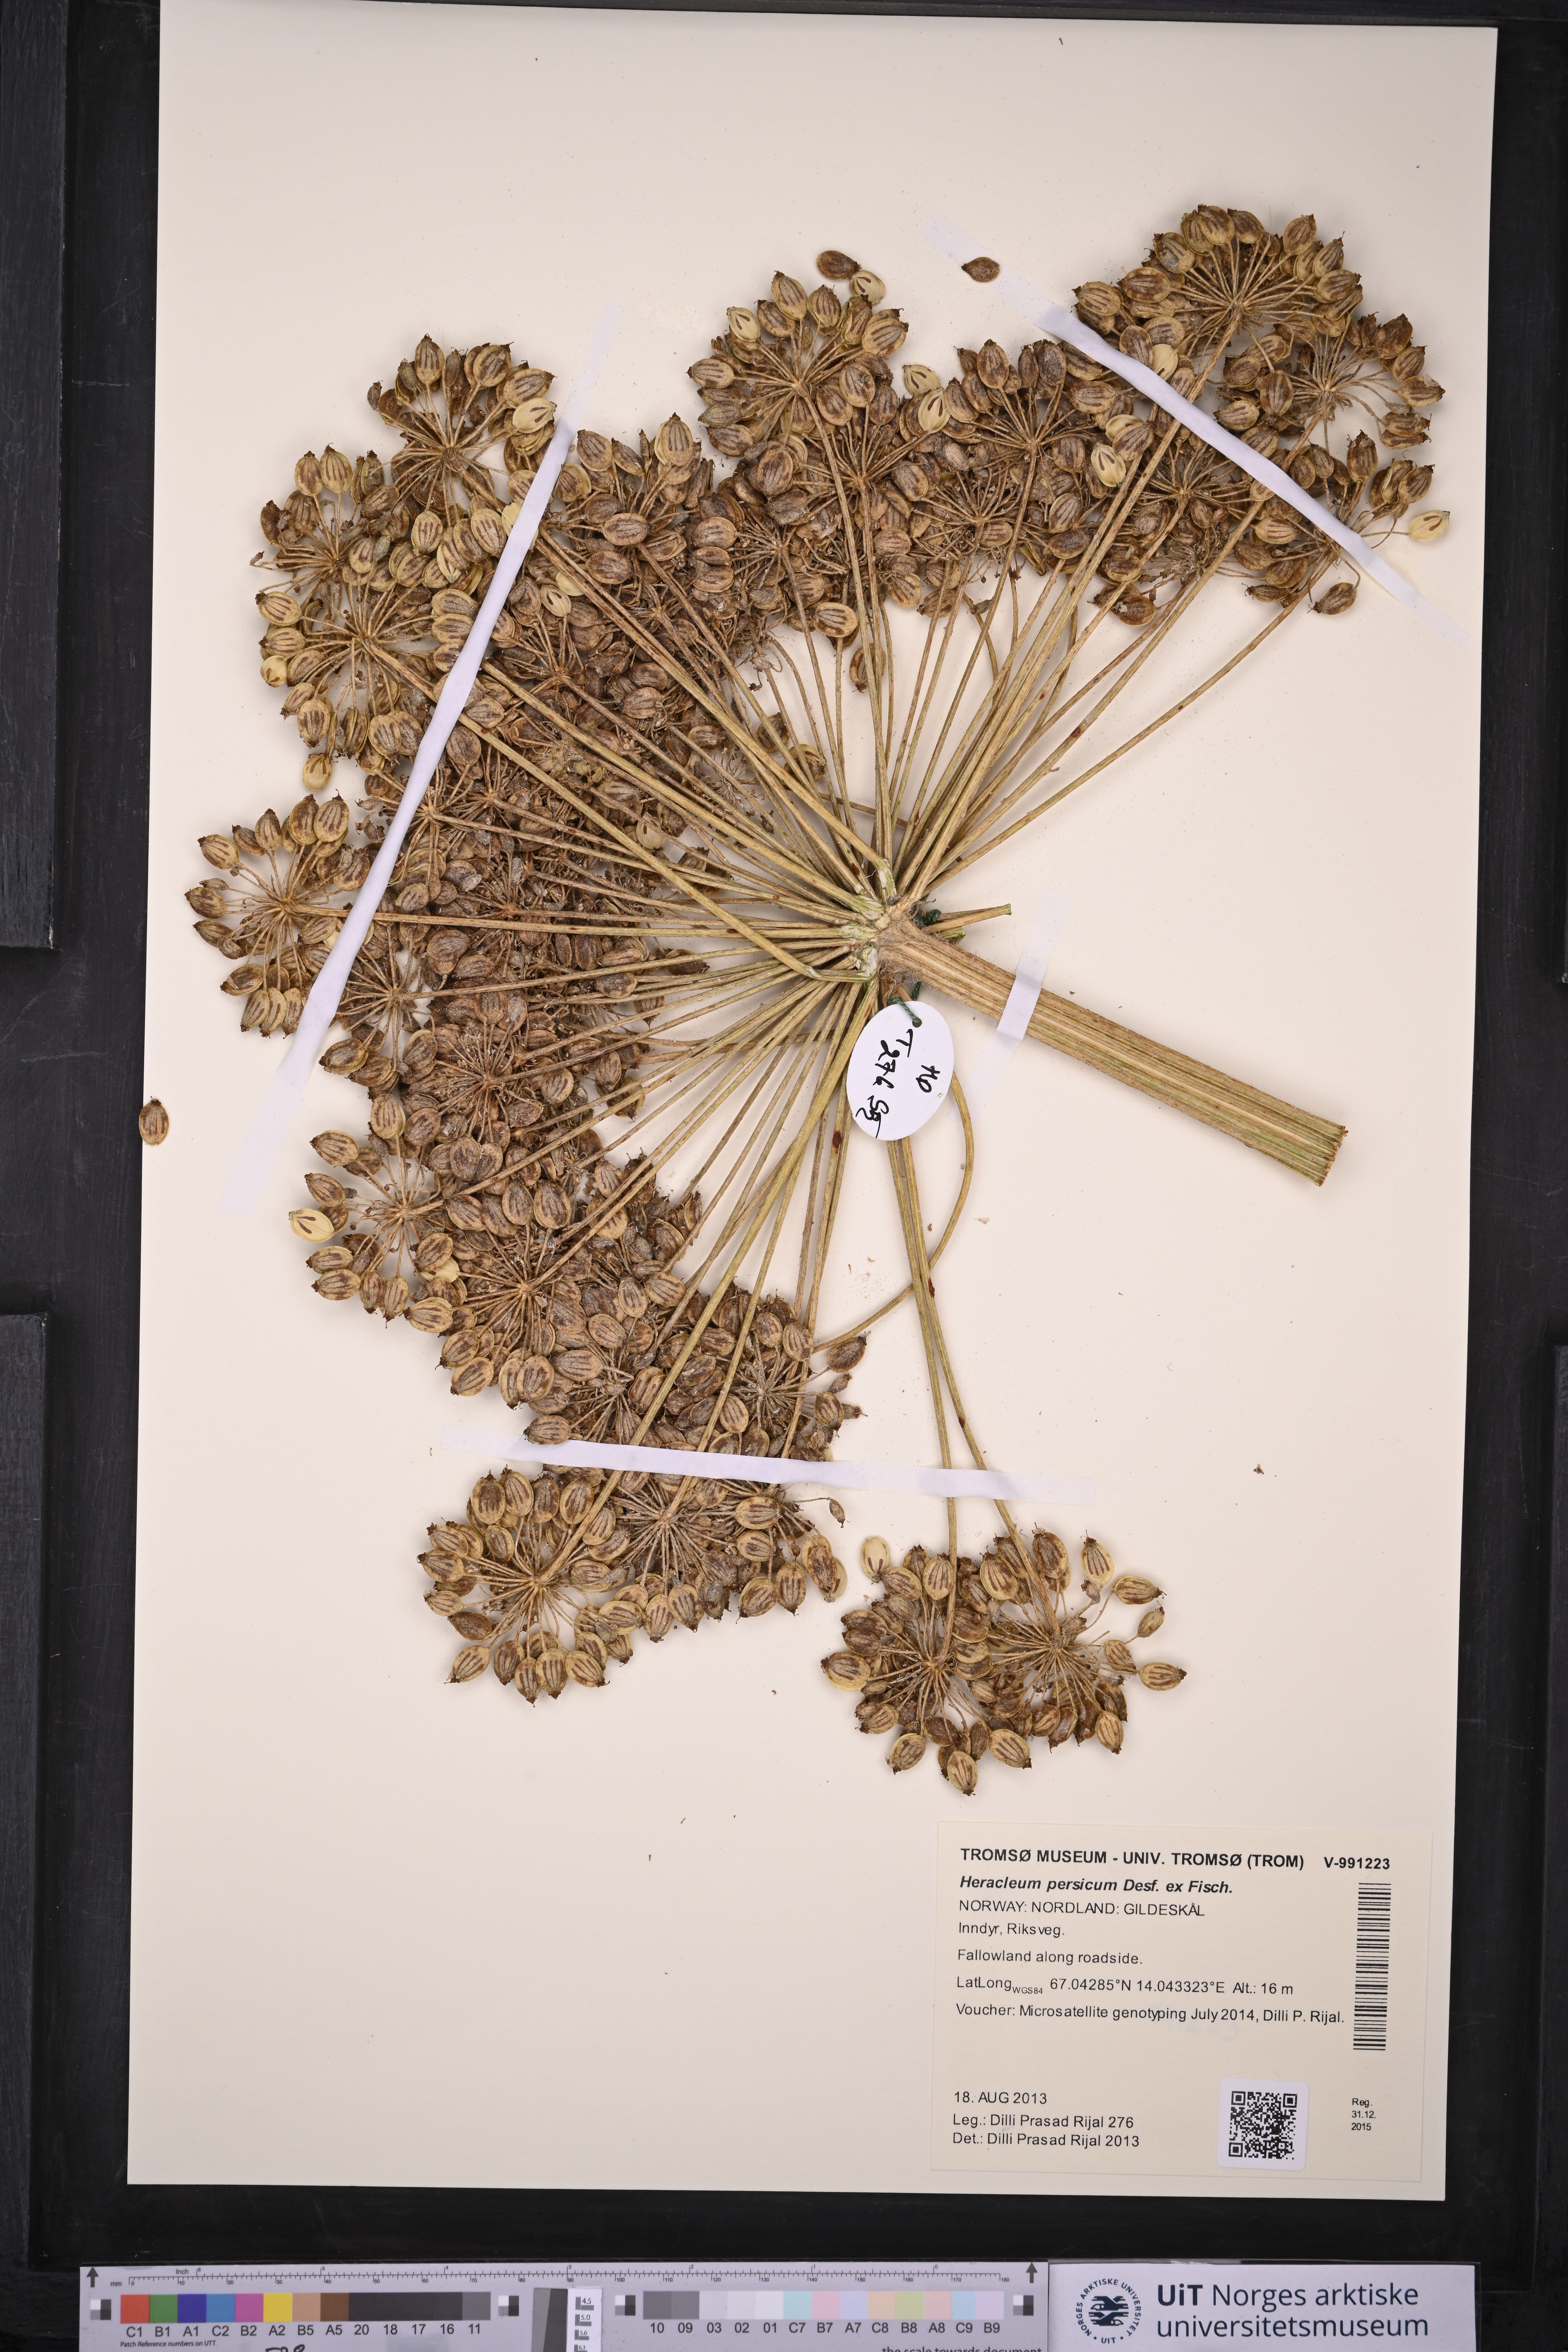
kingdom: Plantae
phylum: Tracheophyta
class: Magnoliopsida
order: Apiales
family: Apiaceae
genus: Heracleum
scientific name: Heracleum persicum
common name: Persian hogweed
